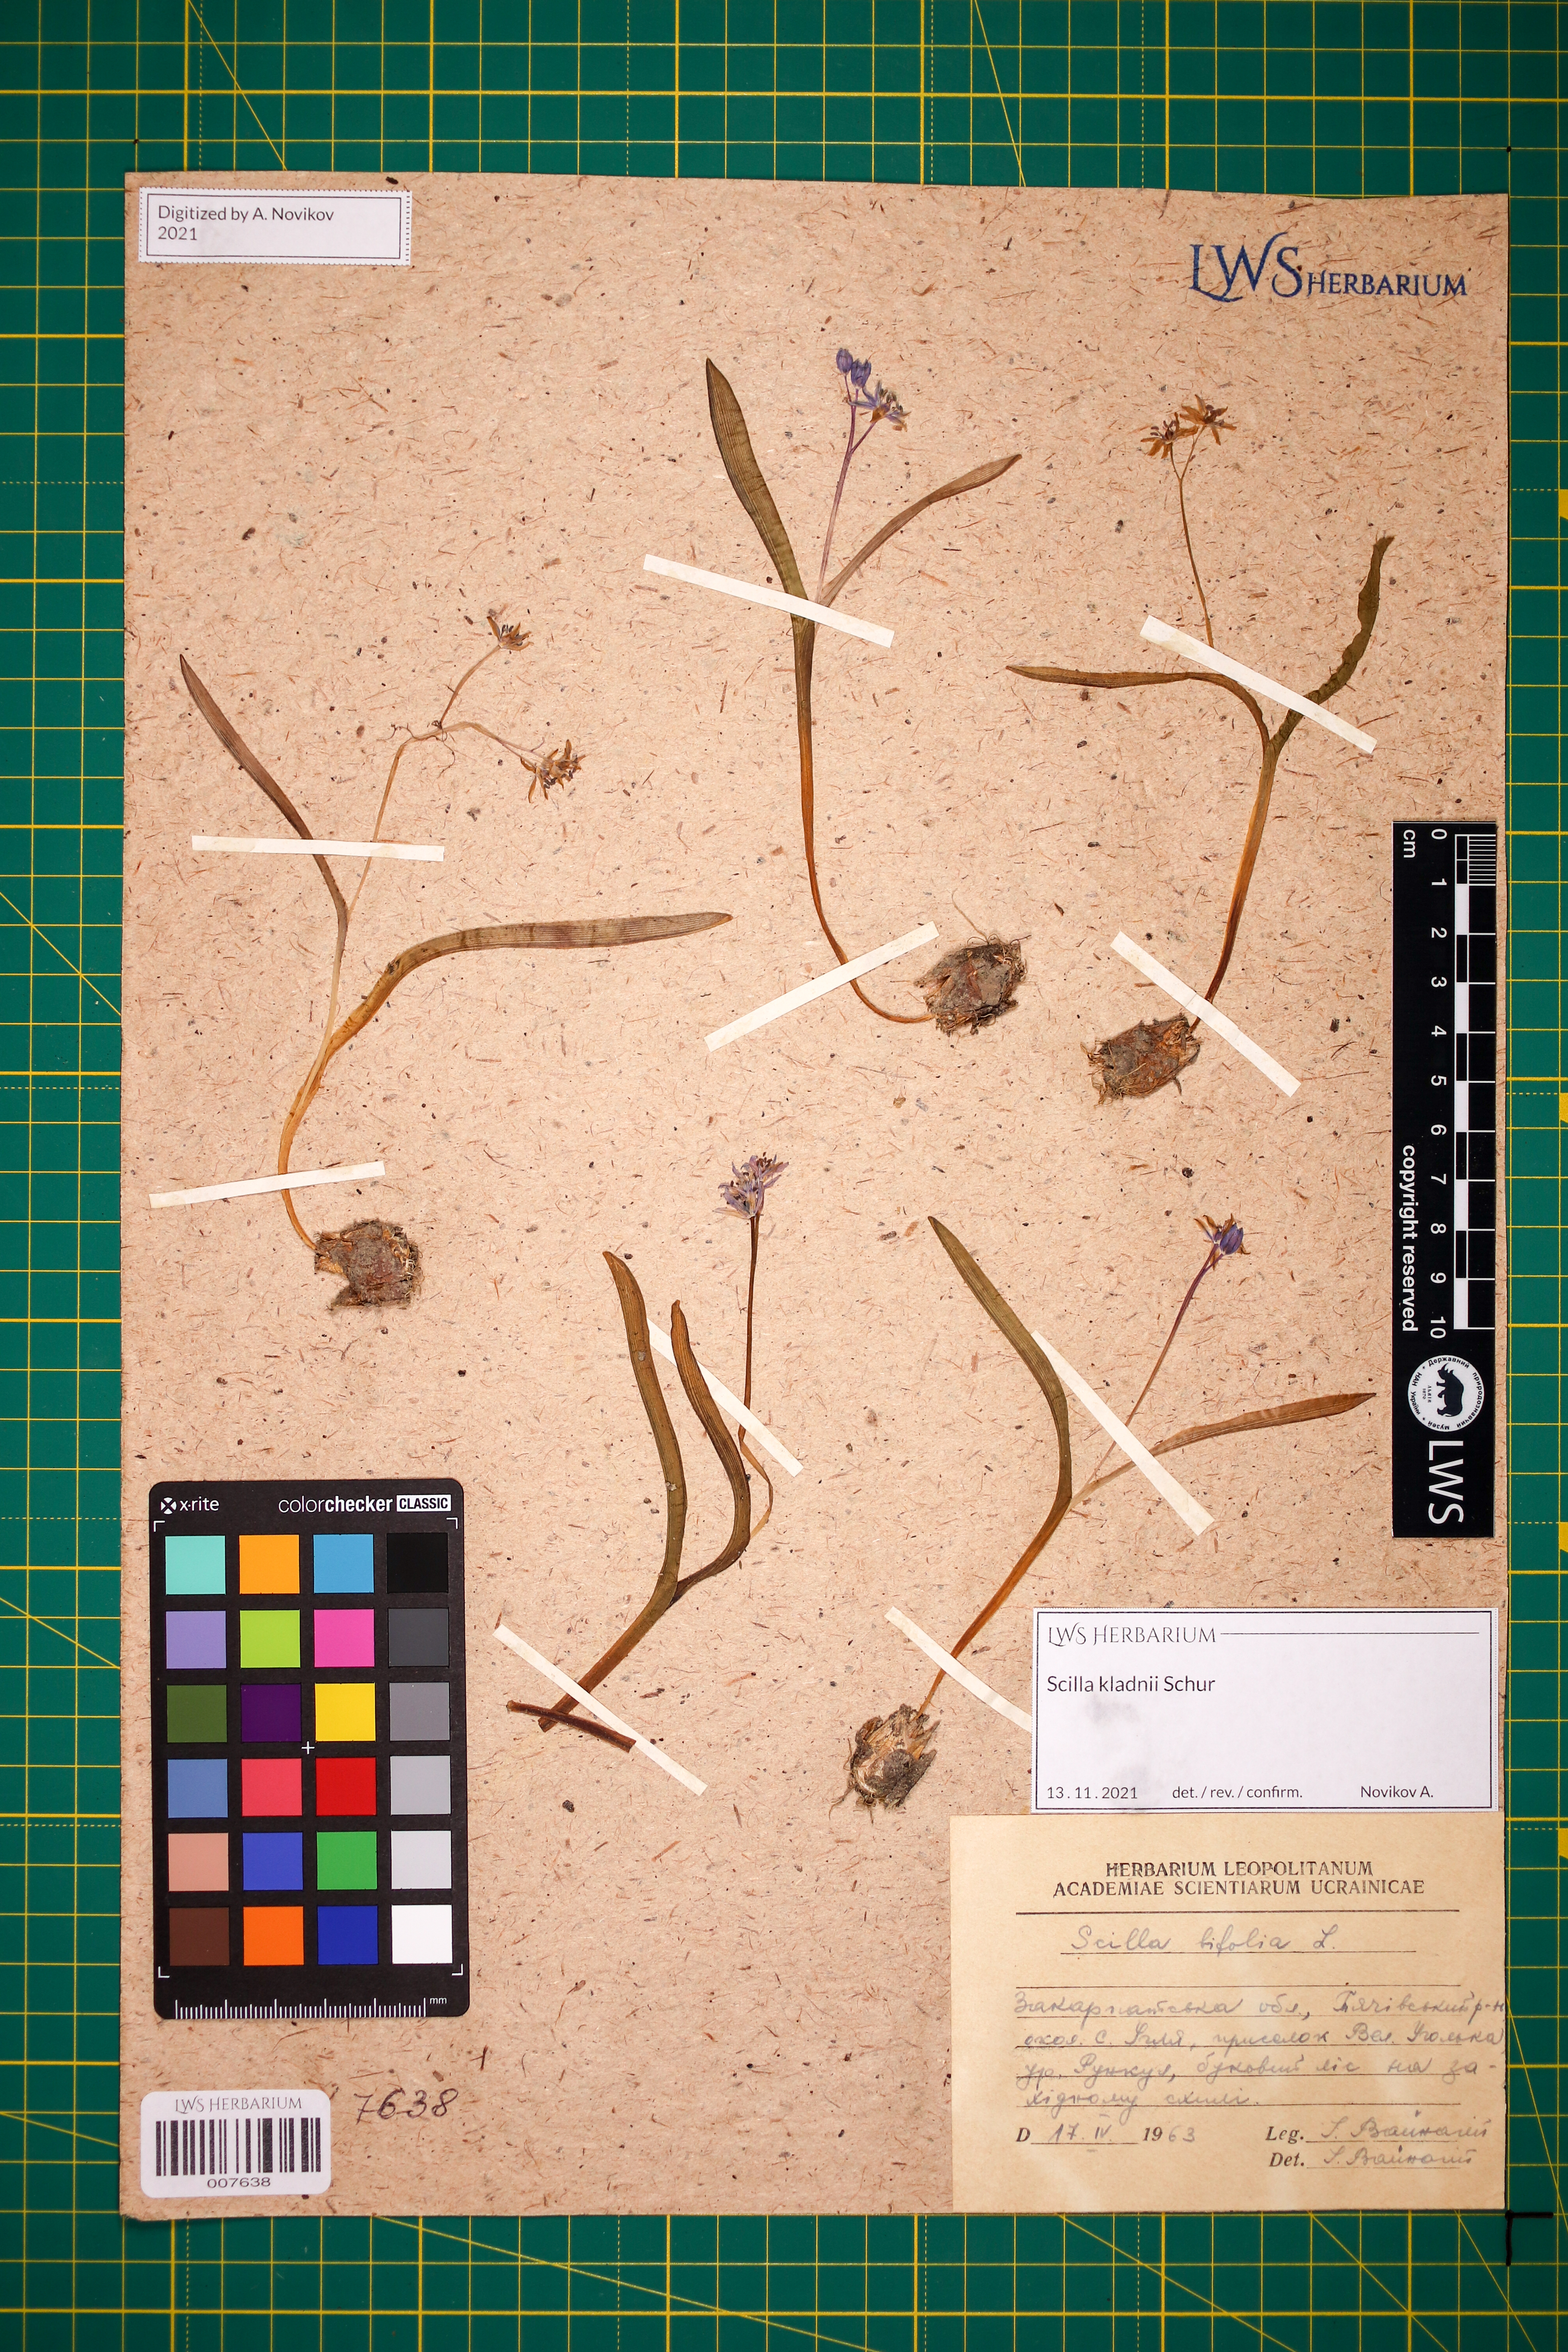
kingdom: Plantae
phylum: Tracheophyta
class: Liliopsida
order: Asparagales
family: Asparagaceae
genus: Scilla
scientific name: Scilla kladnii
